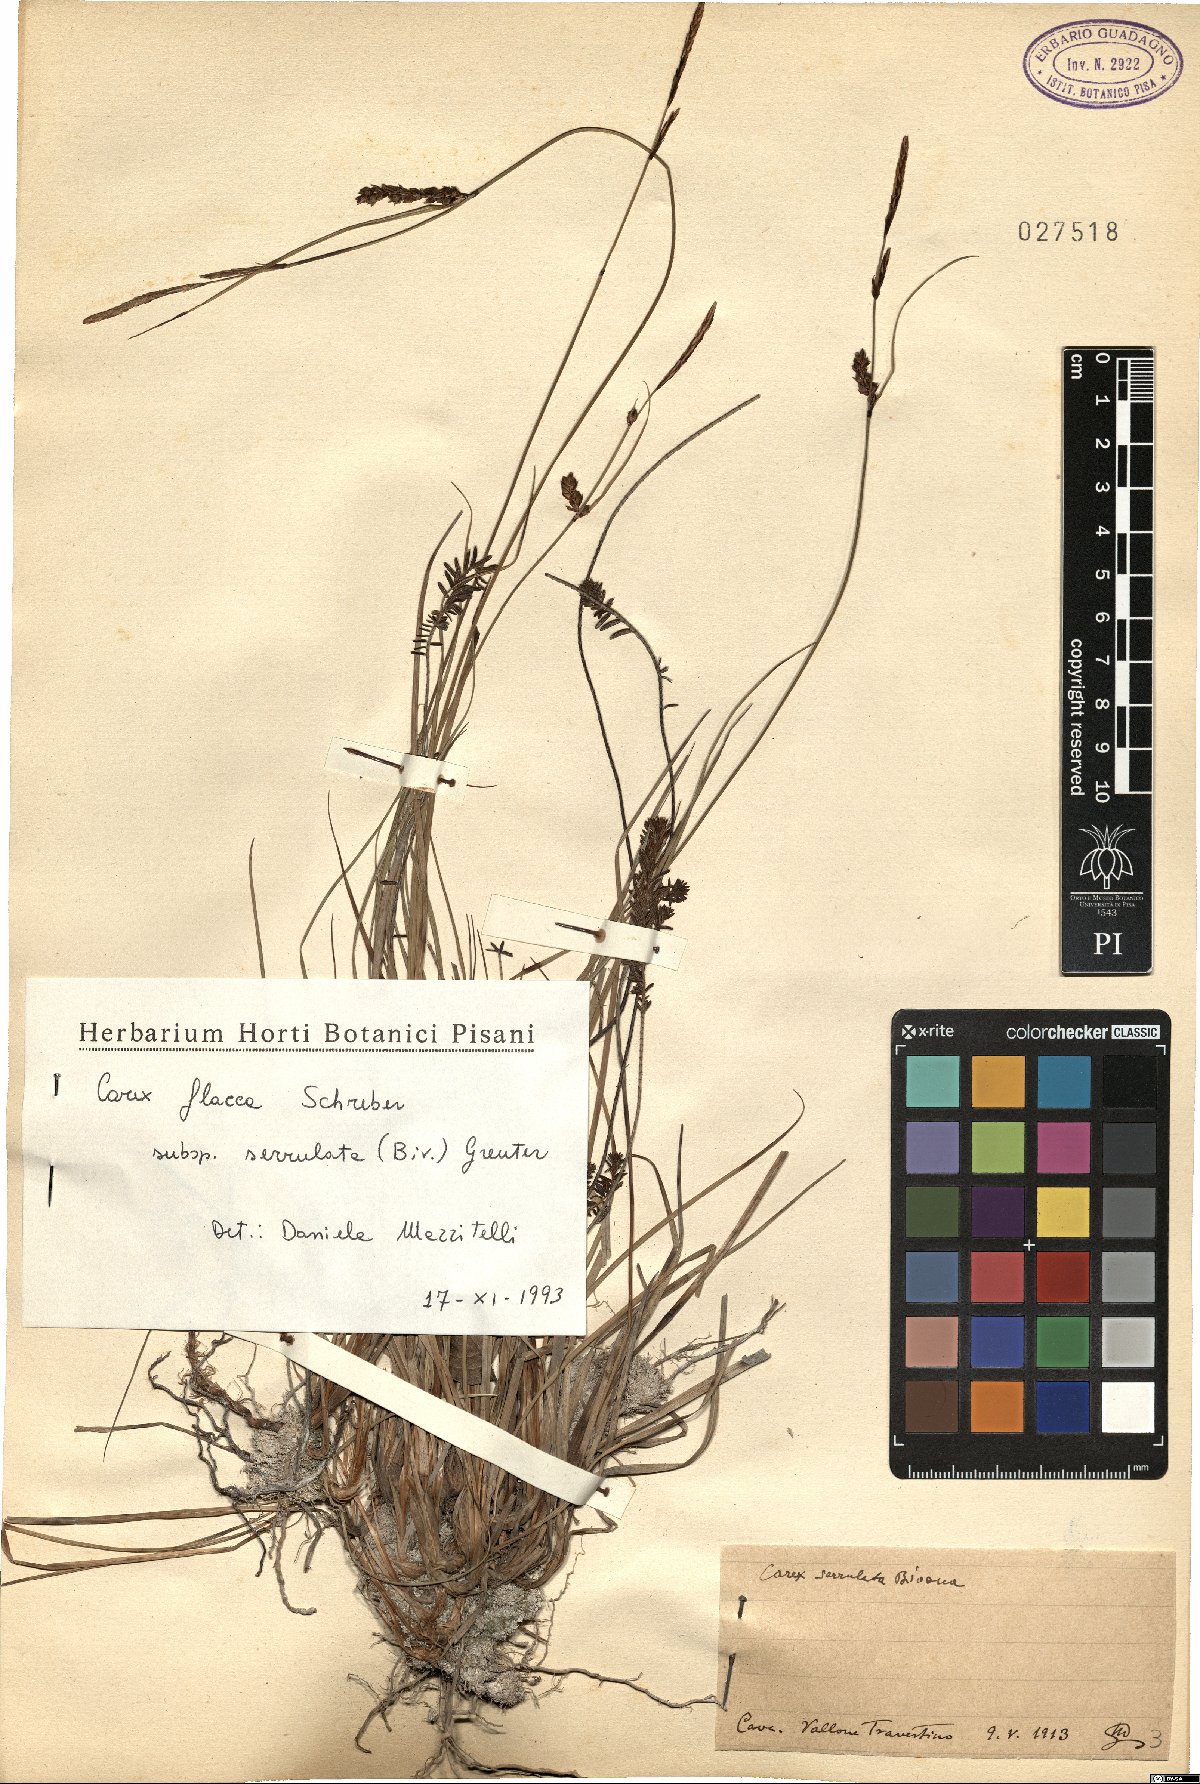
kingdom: Plantae
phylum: Tracheophyta
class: Liliopsida
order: Poales
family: Cyperaceae
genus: Carex
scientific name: Carex flacca
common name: Glaucous sedge
